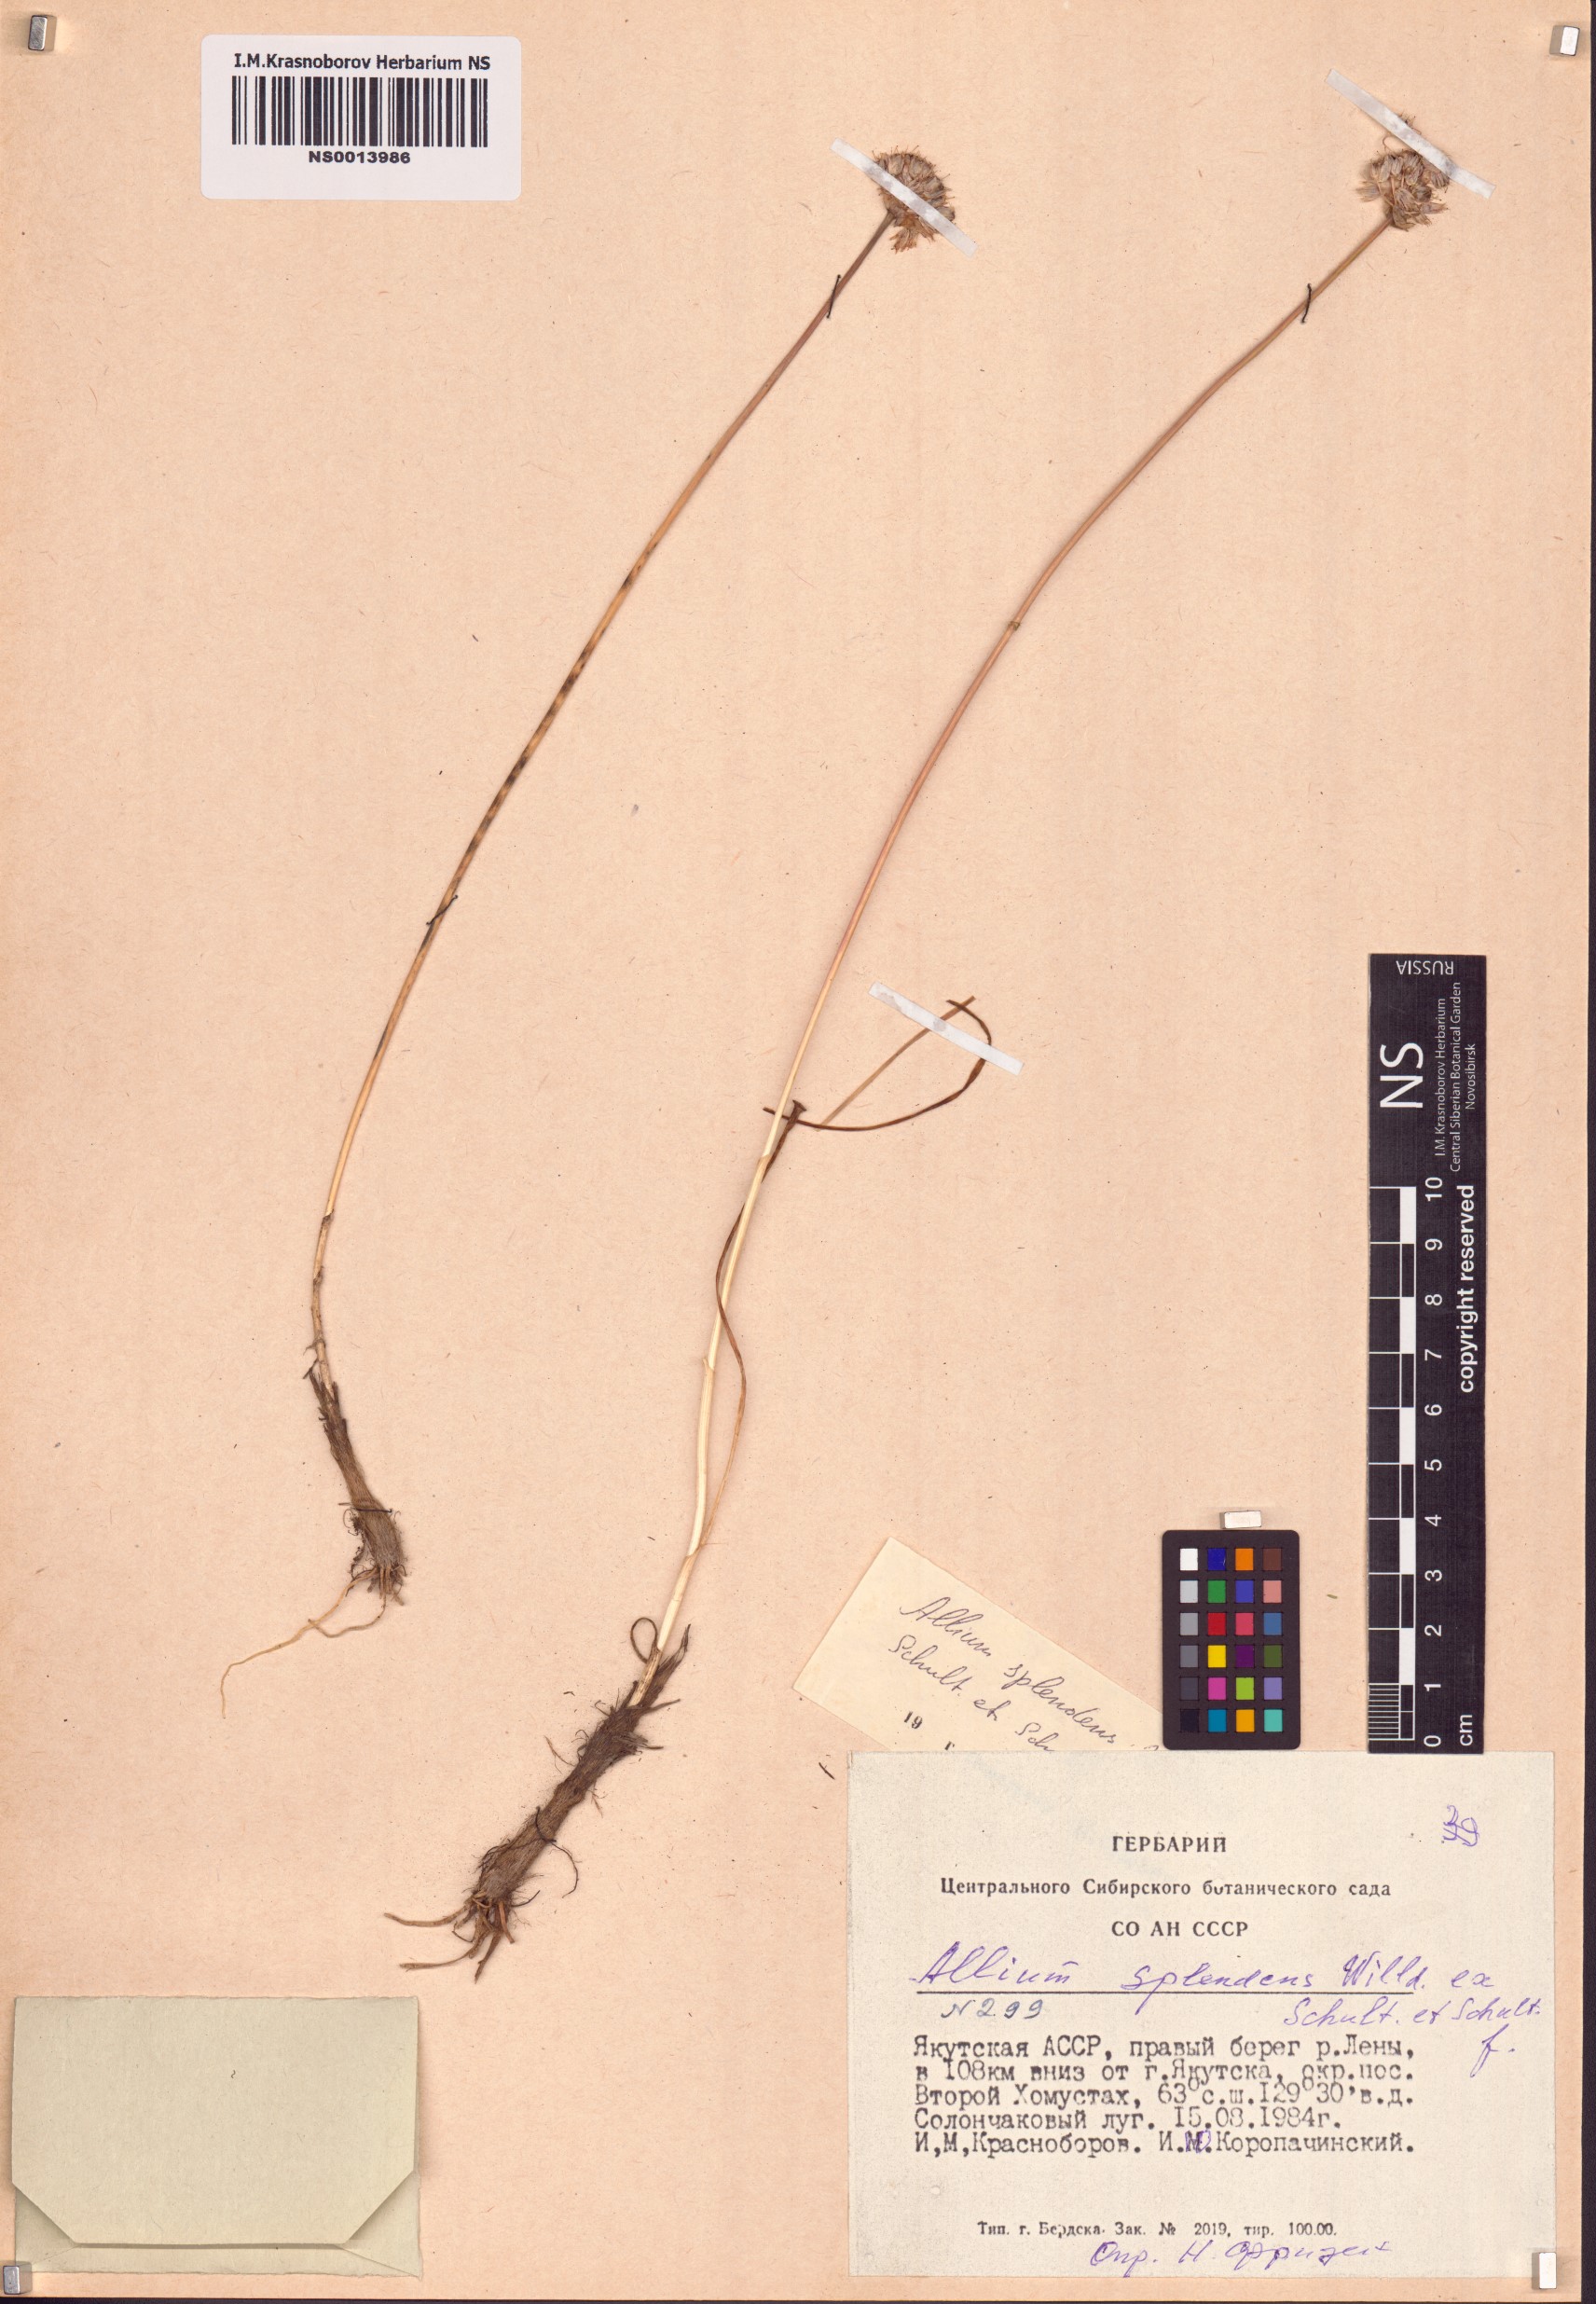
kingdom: Plantae
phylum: Tracheophyta
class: Liliopsida
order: Asparagales
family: Amaryllidaceae
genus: Allium
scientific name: Allium splendens
